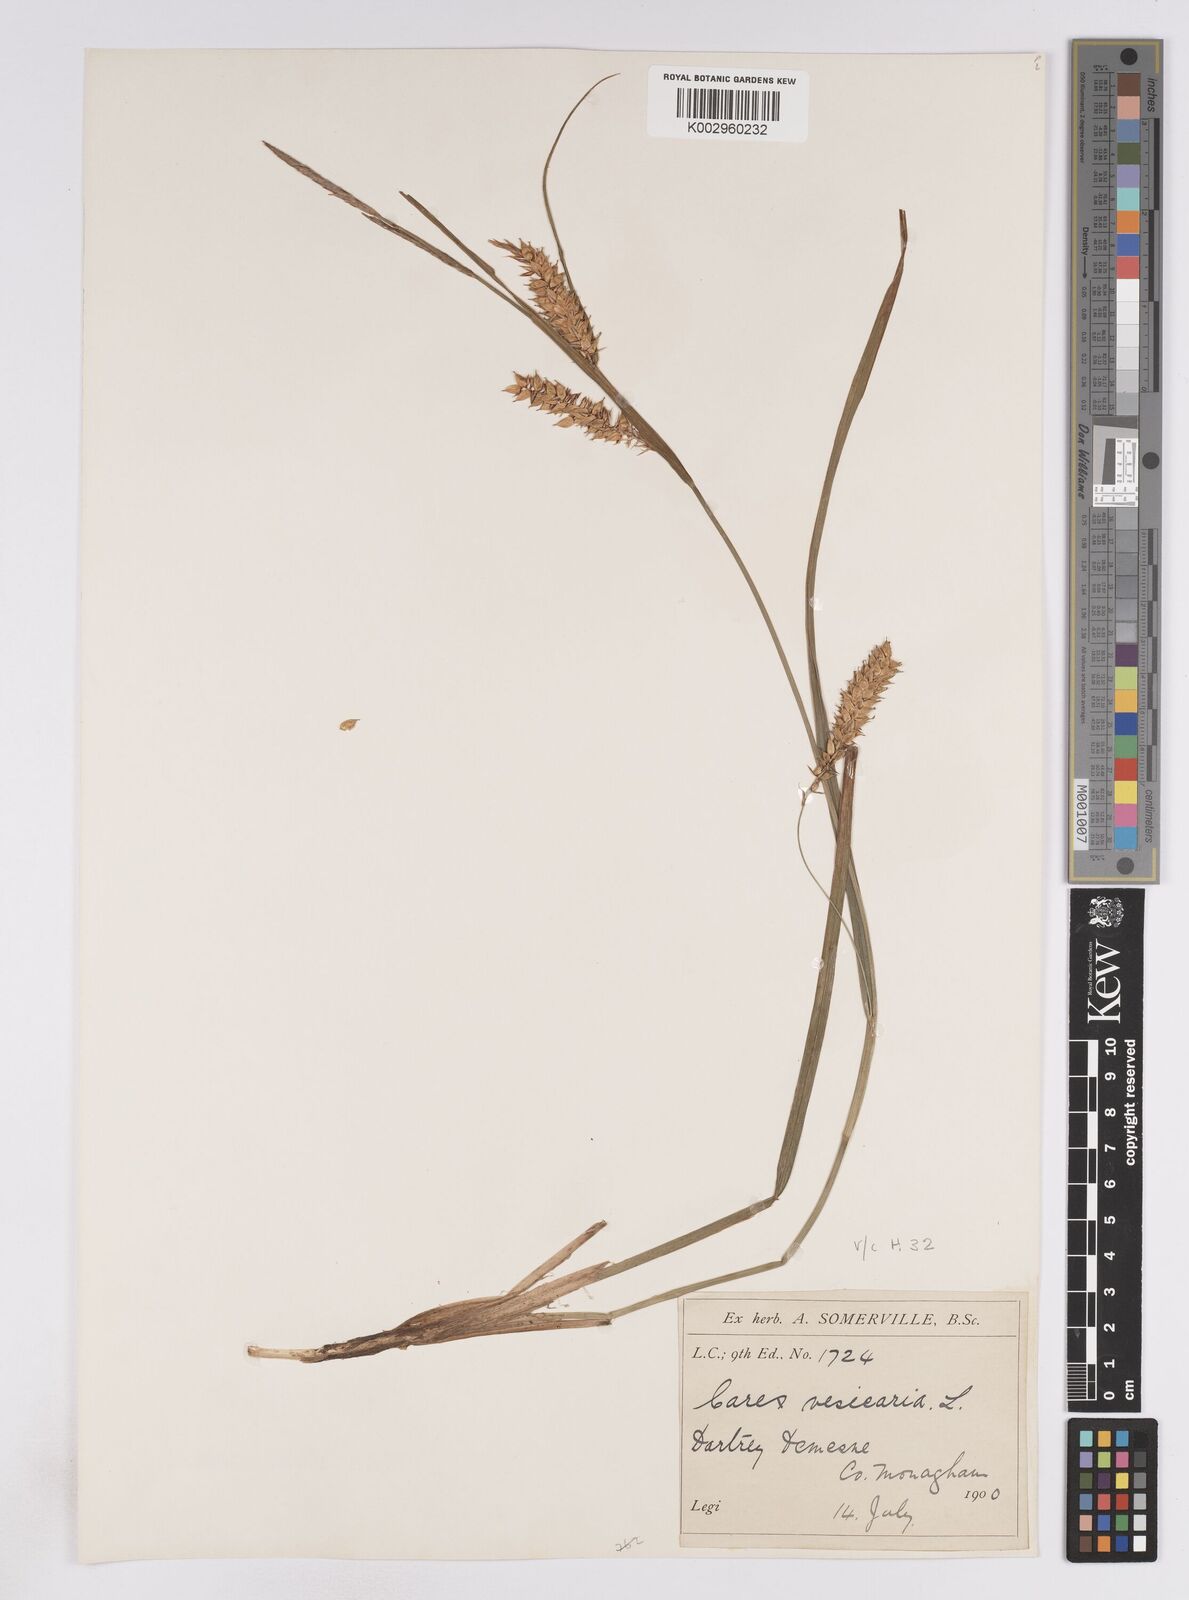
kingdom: Plantae
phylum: Tracheophyta
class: Liliopsida
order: Poales
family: Cyperaceae
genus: Carex
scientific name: Carex vesicaria
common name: Bladder-sedge
